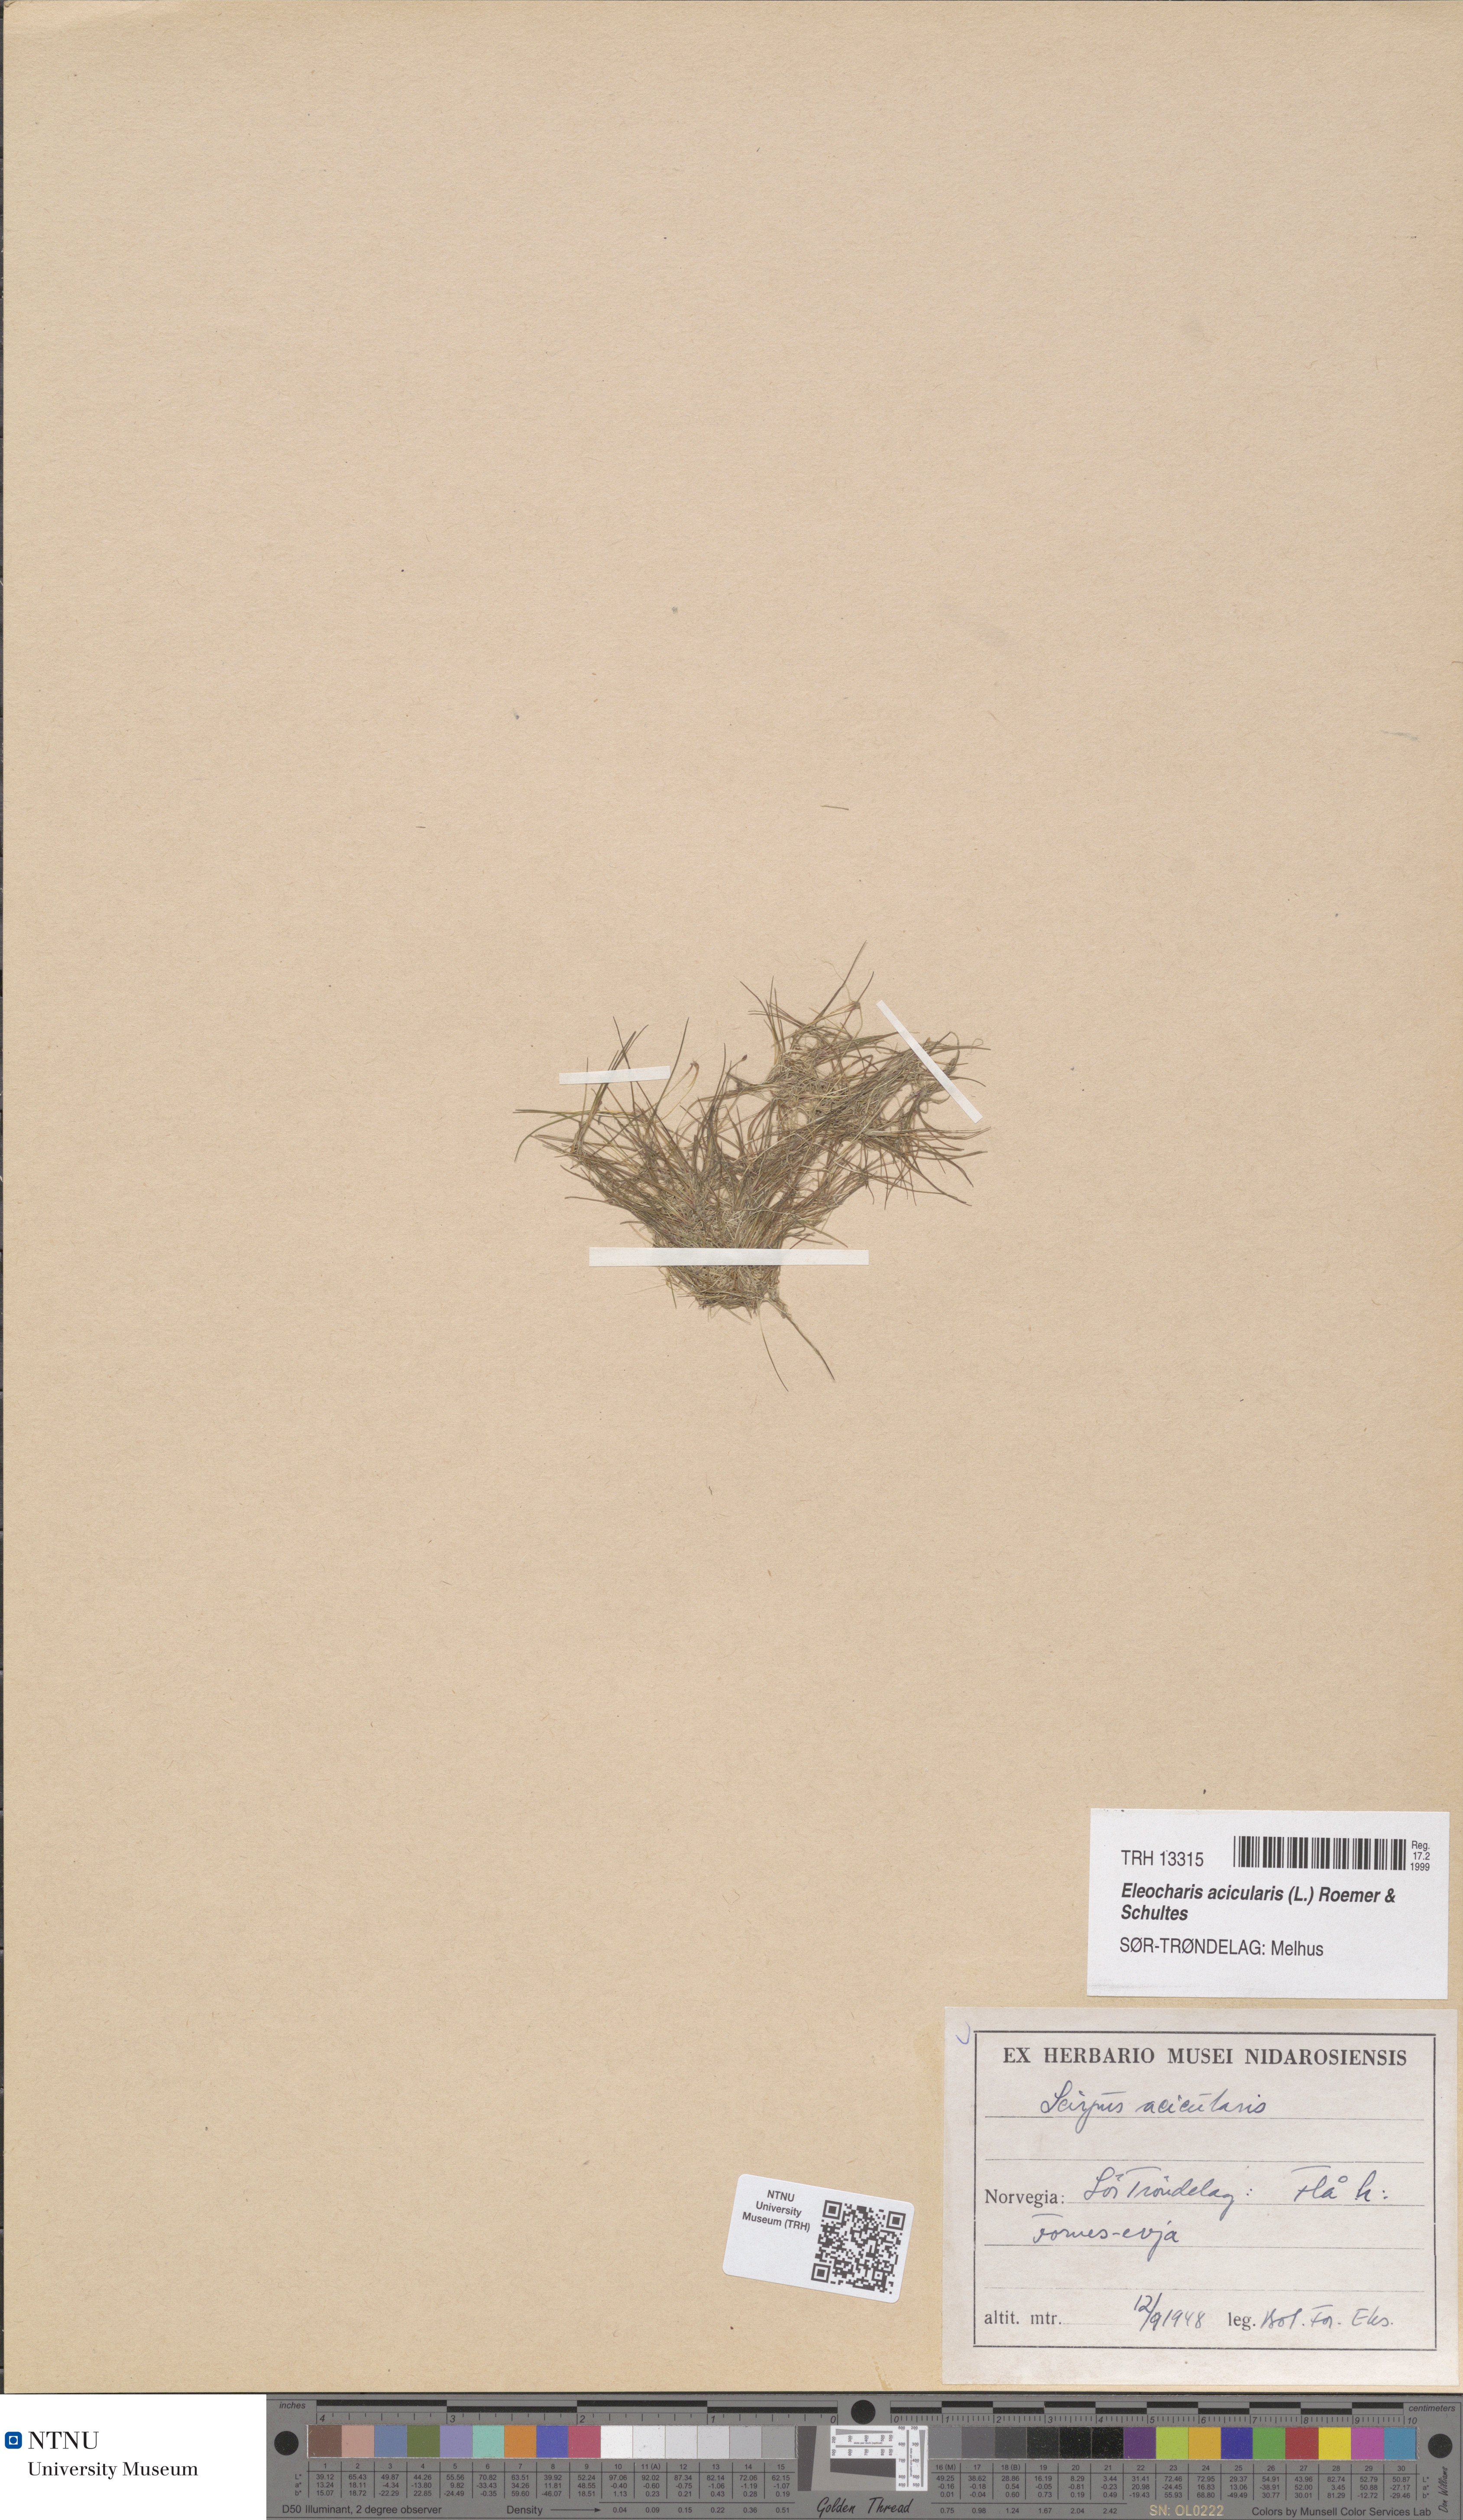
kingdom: Plantae
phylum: Tracheophyta
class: Liliopsida
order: Poales
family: Cyperaceae
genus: Eleocharis
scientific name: Eleocharis acicularis
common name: Needle spike-rush
